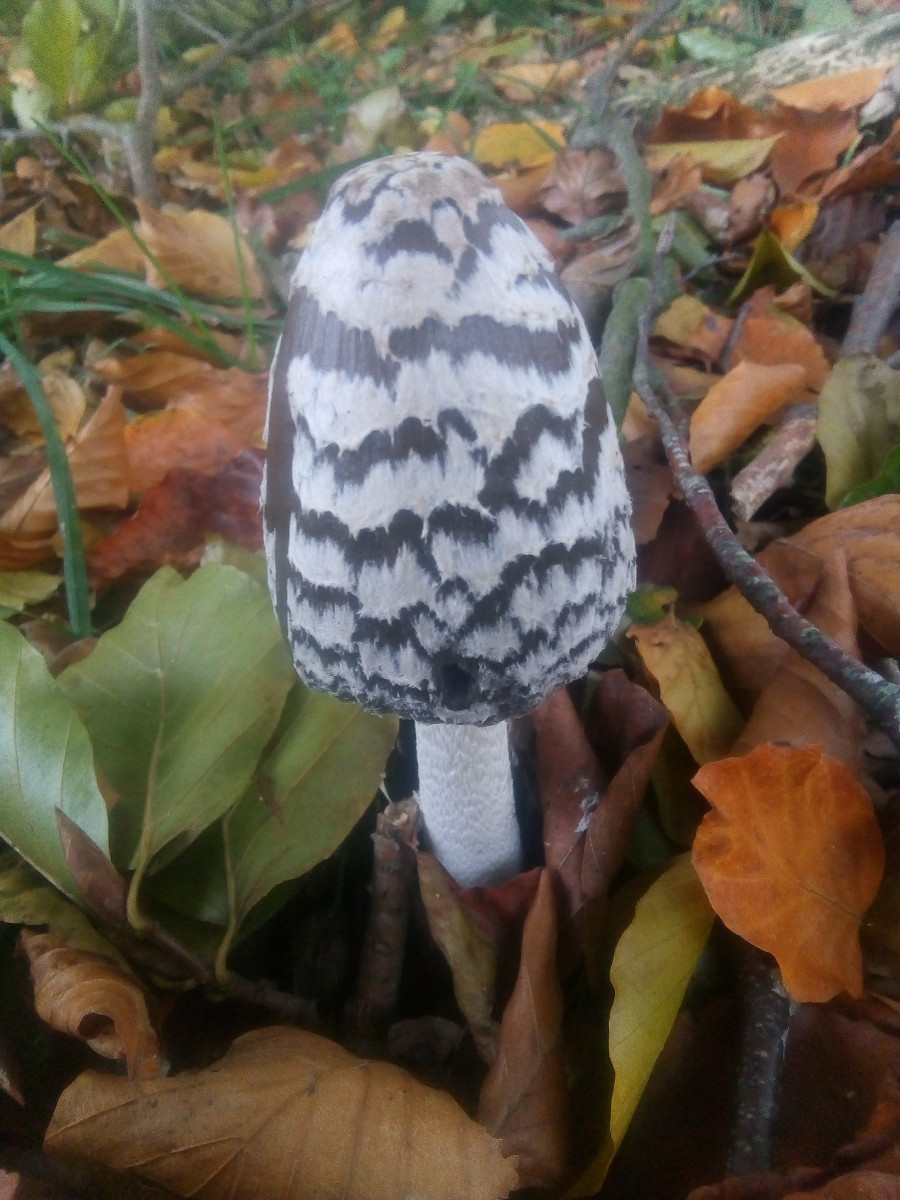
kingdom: Fungi
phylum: Basidiomycota
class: Agaricomycetes
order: Agaricales
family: Psathyrellaceae
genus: Coprinopsis
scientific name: Coprinopsis picacea
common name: skade-blækhat
